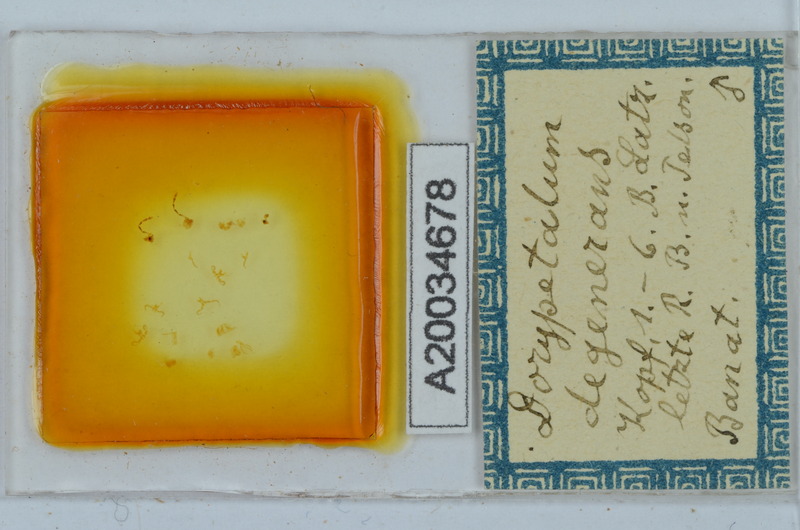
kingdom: Animalia
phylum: Arthropoda
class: Diplopoda
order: Callipodida
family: Dorypetalidae
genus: Dorypetalum
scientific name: Dorypetalum degenerans
